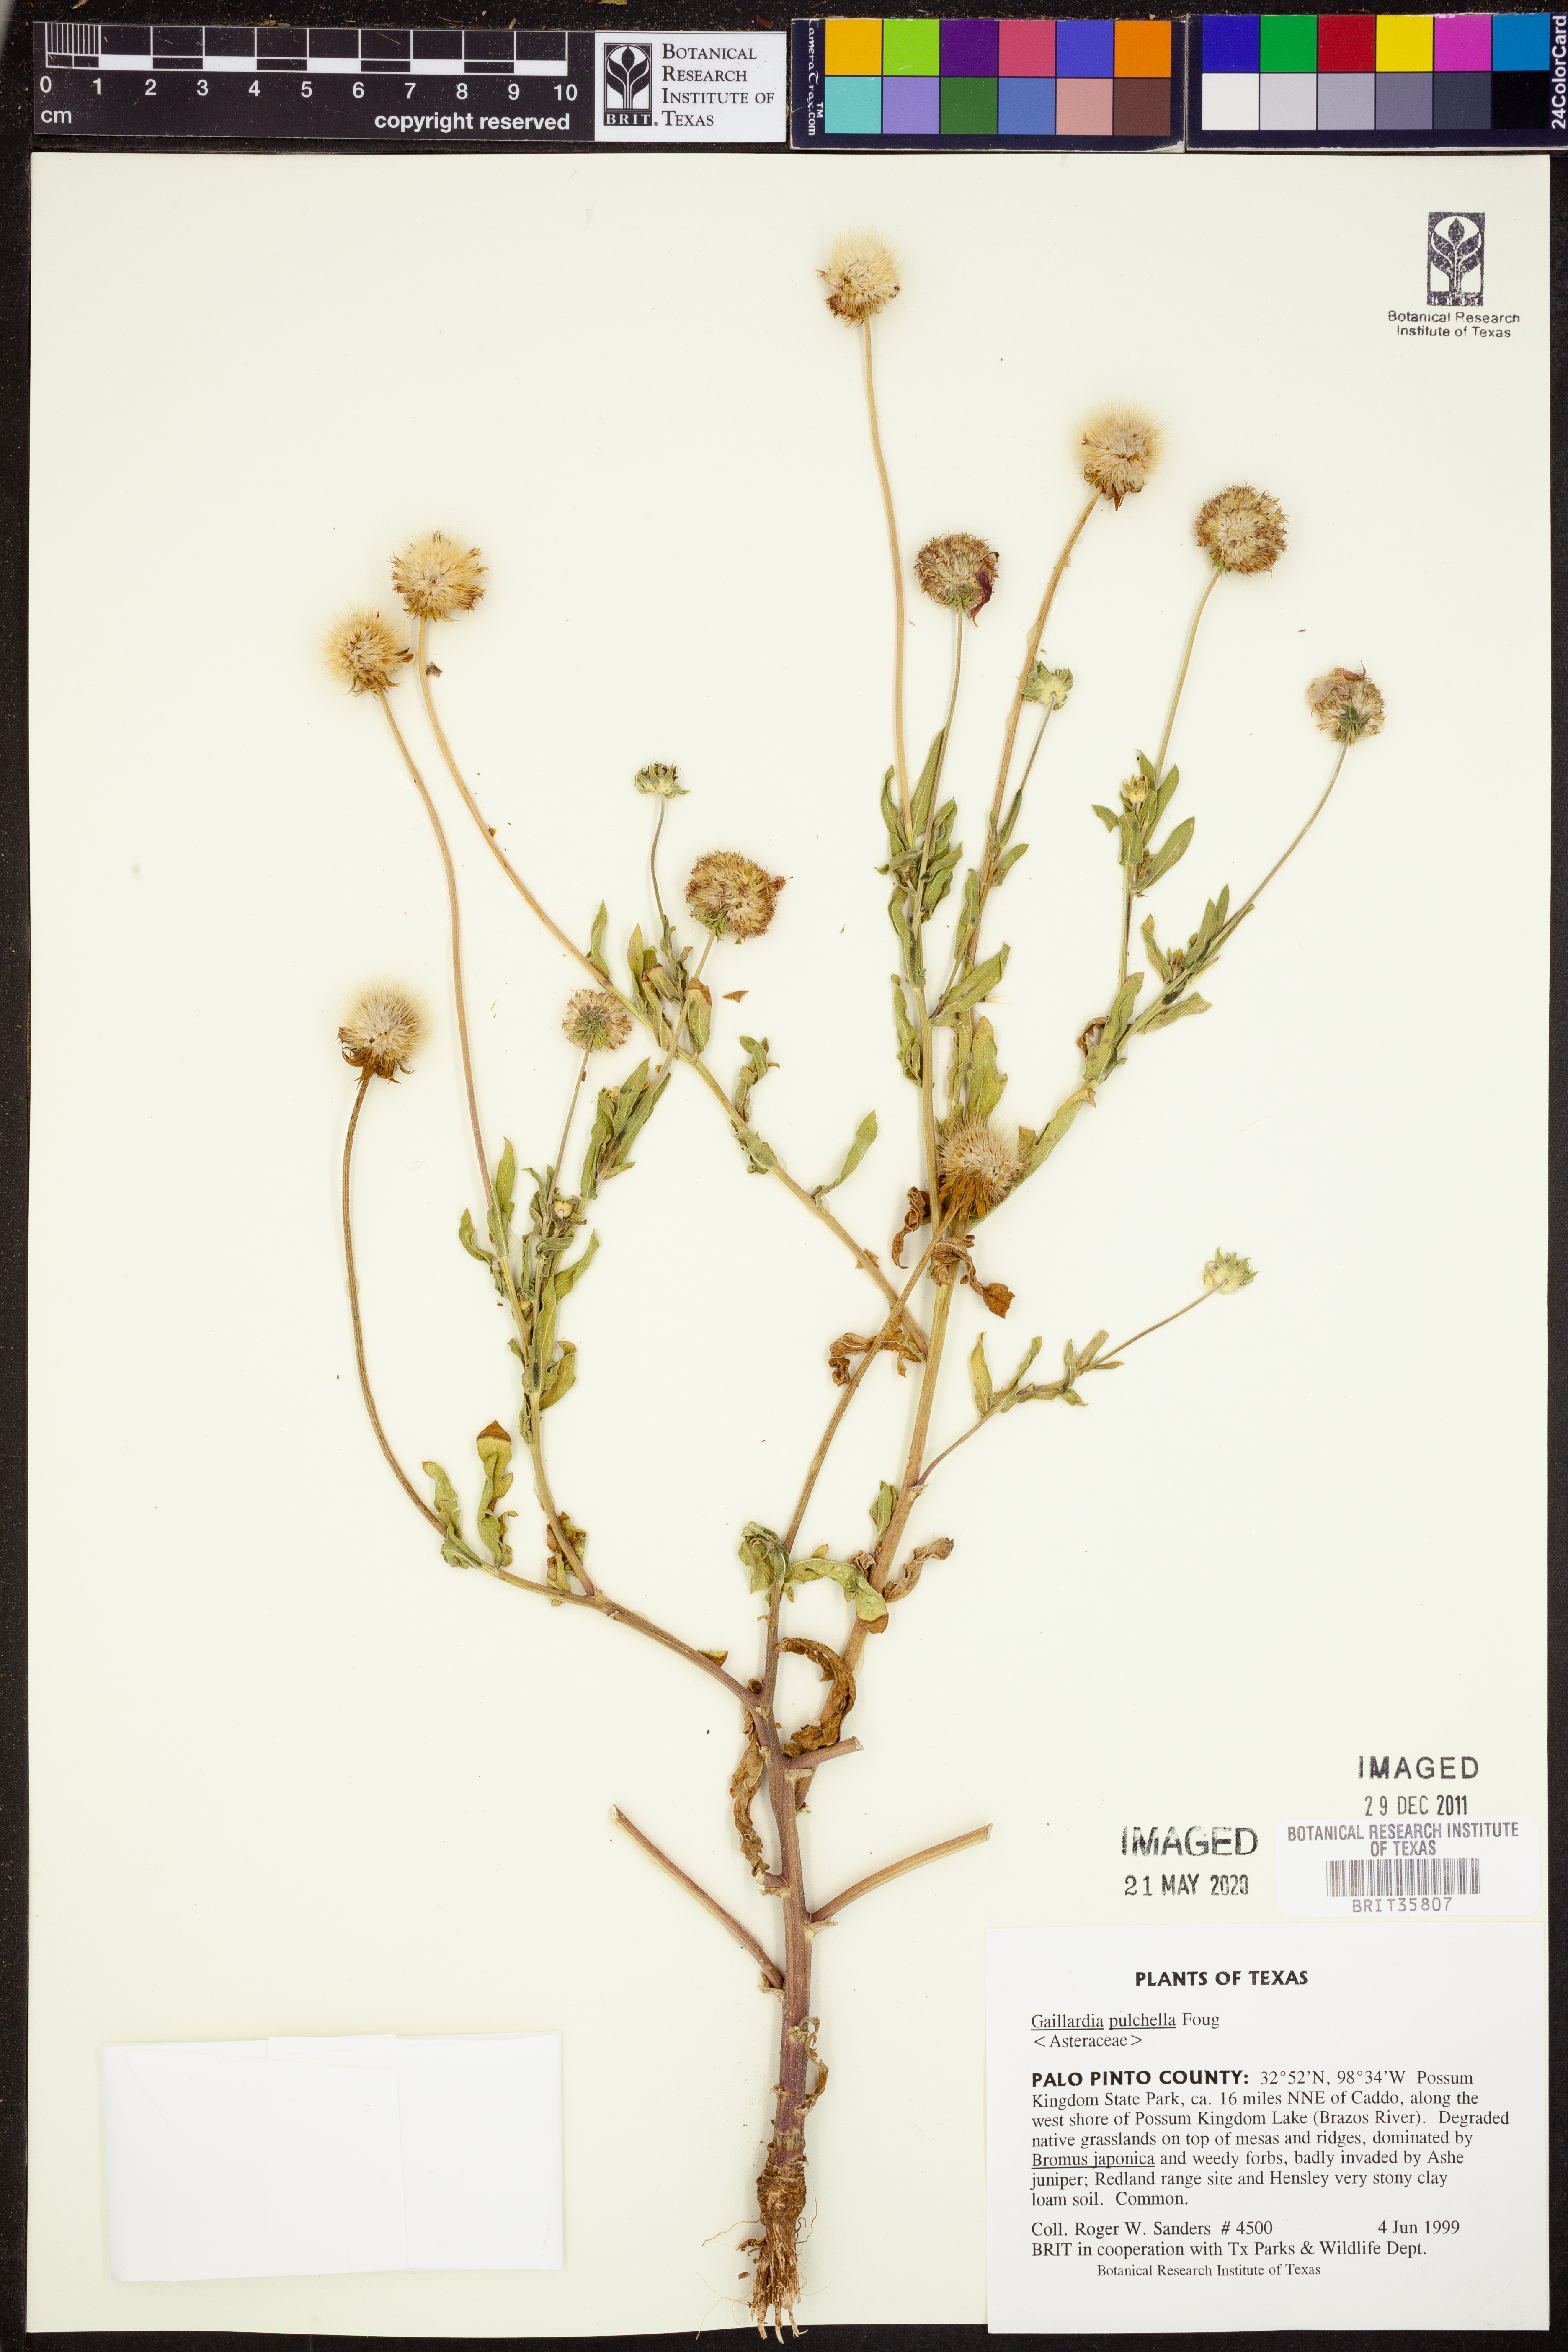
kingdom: Plantae
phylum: Tracheophyta
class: Magnoliopsida
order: Asterales
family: Asteraceae
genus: Gaillardia
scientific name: Gaillardia pulchella
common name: Firewheel
